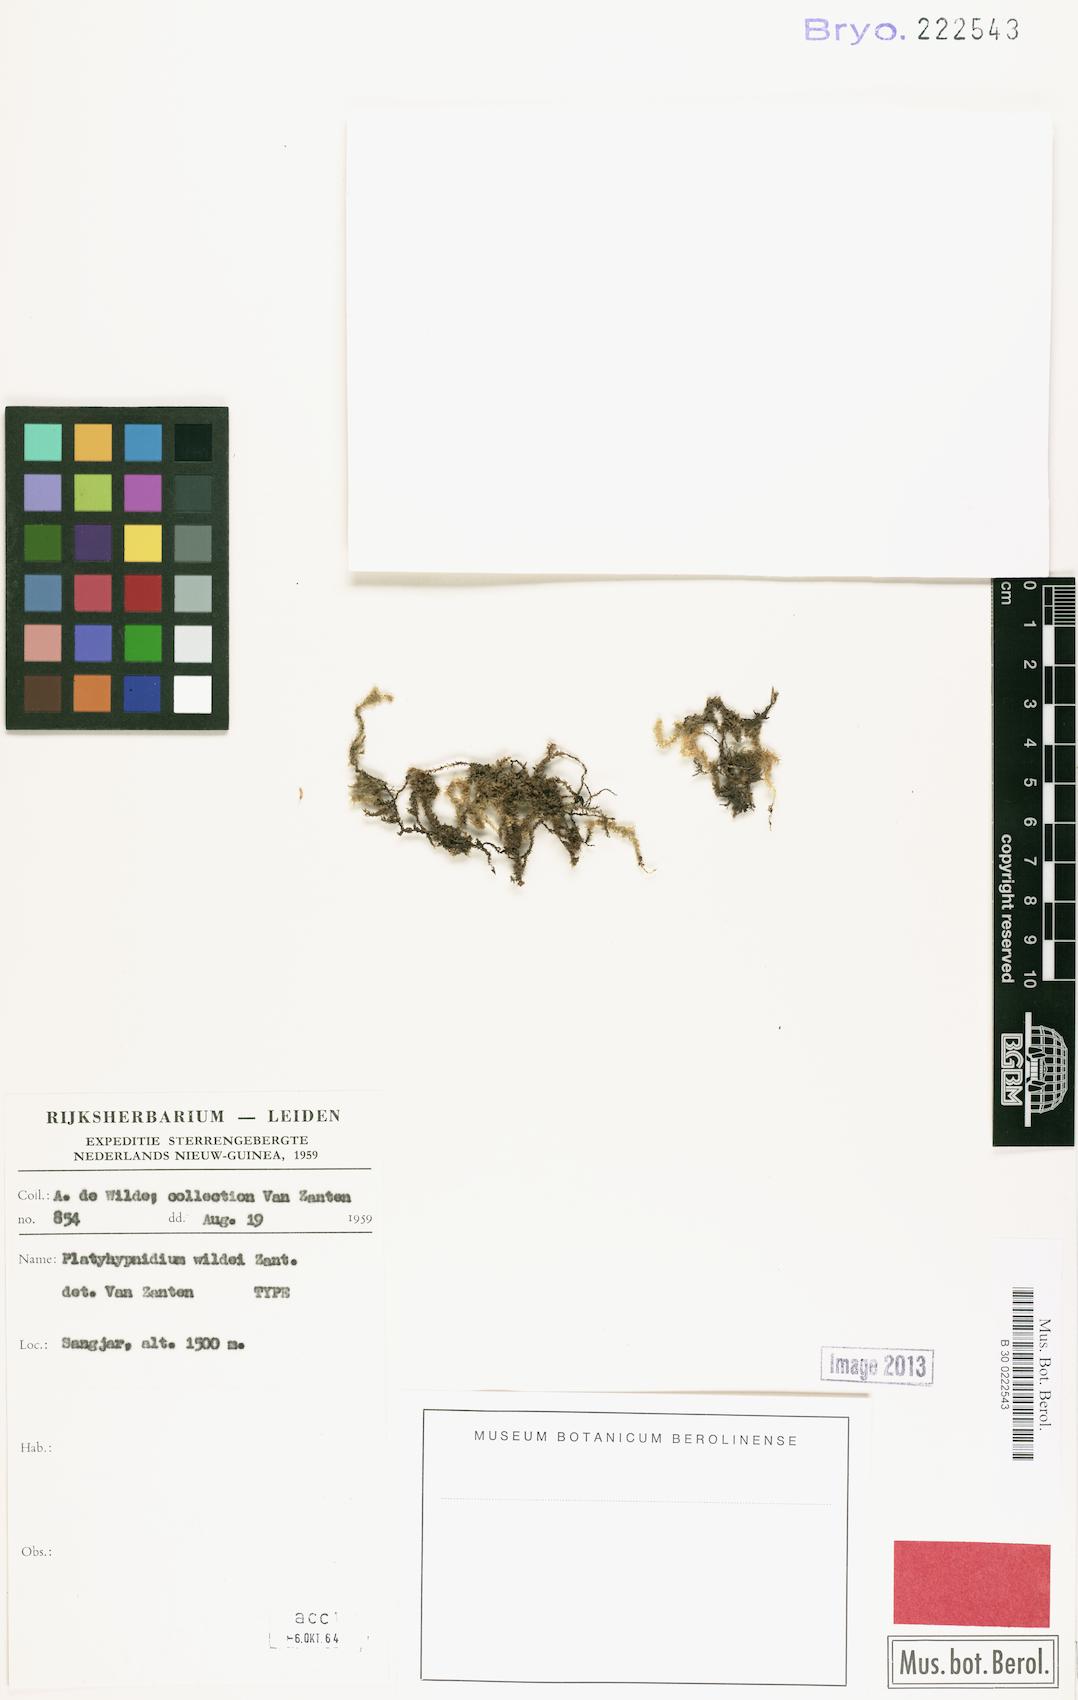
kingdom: Plantae
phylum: Bryophyta
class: Bryopsida
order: Hypnales
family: Brachytheciaceae
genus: Rhynchostegium
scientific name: Rhynchostegium
